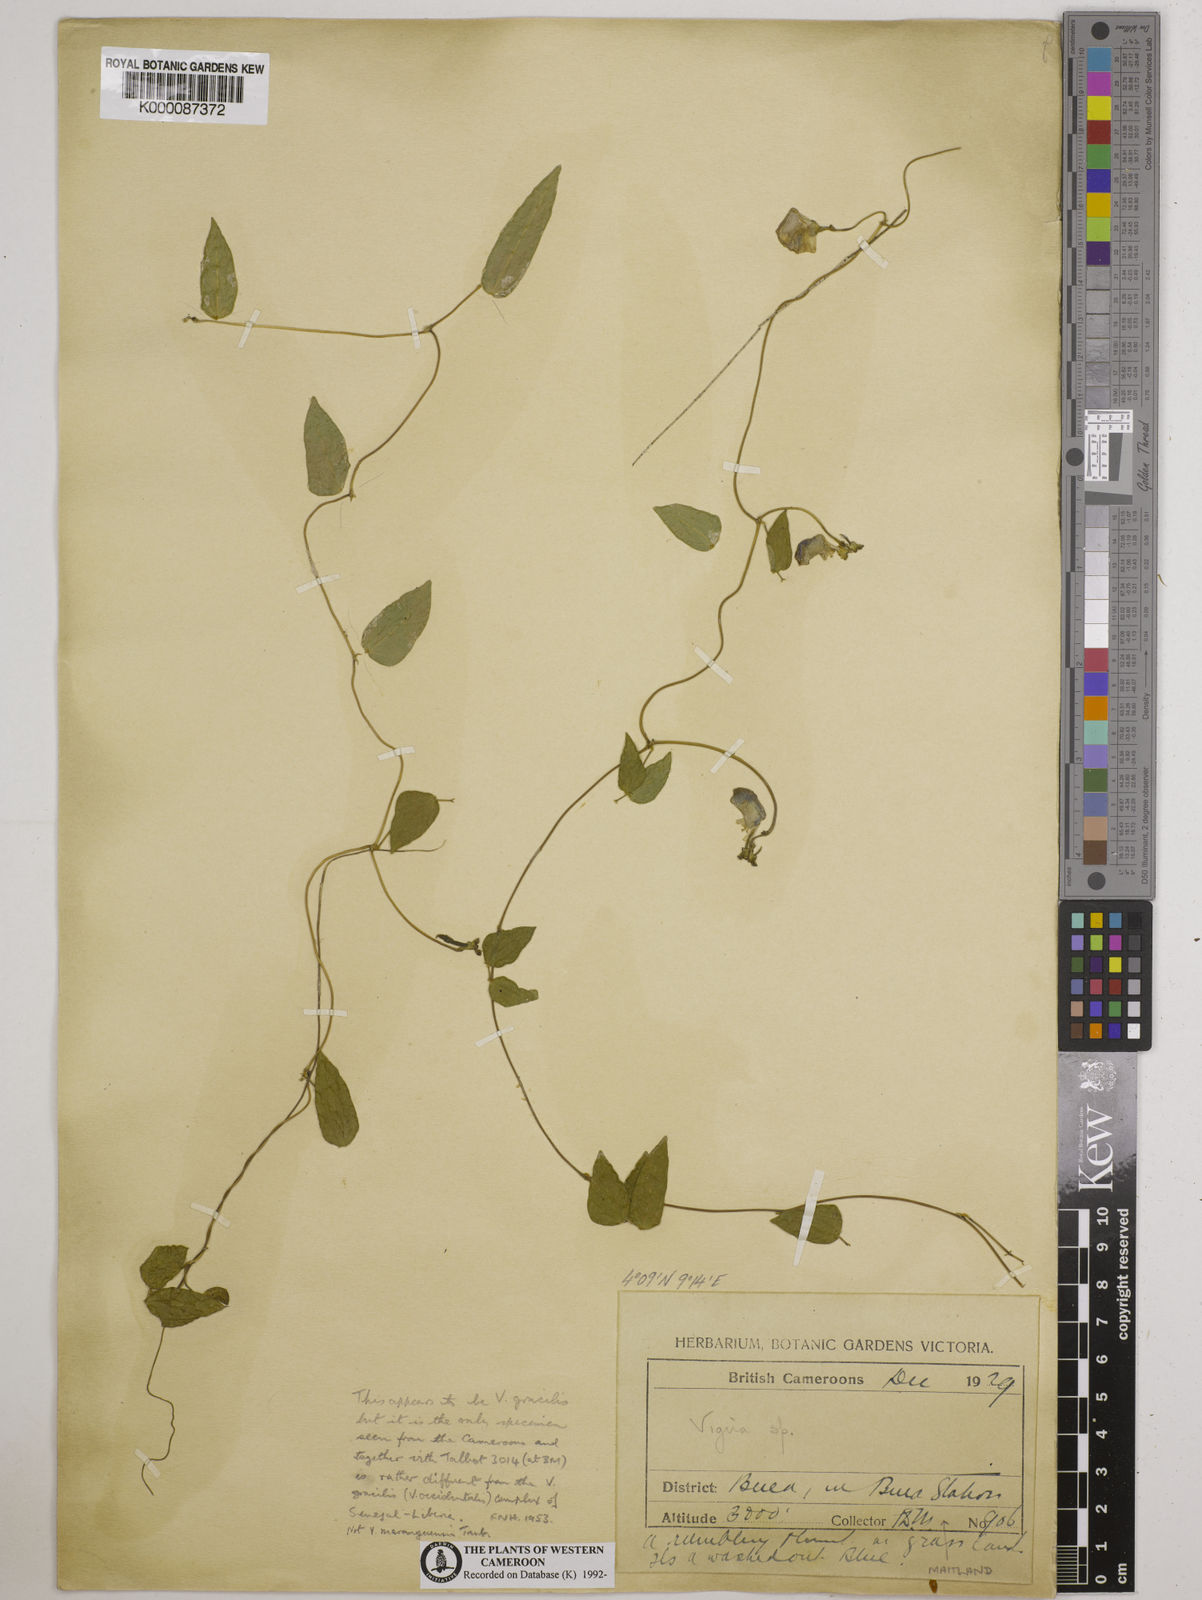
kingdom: Plantae
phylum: Tracheophyta
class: Magnoliopsida
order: Fabales
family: Fabaceae
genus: Vigna
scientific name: Vigna
